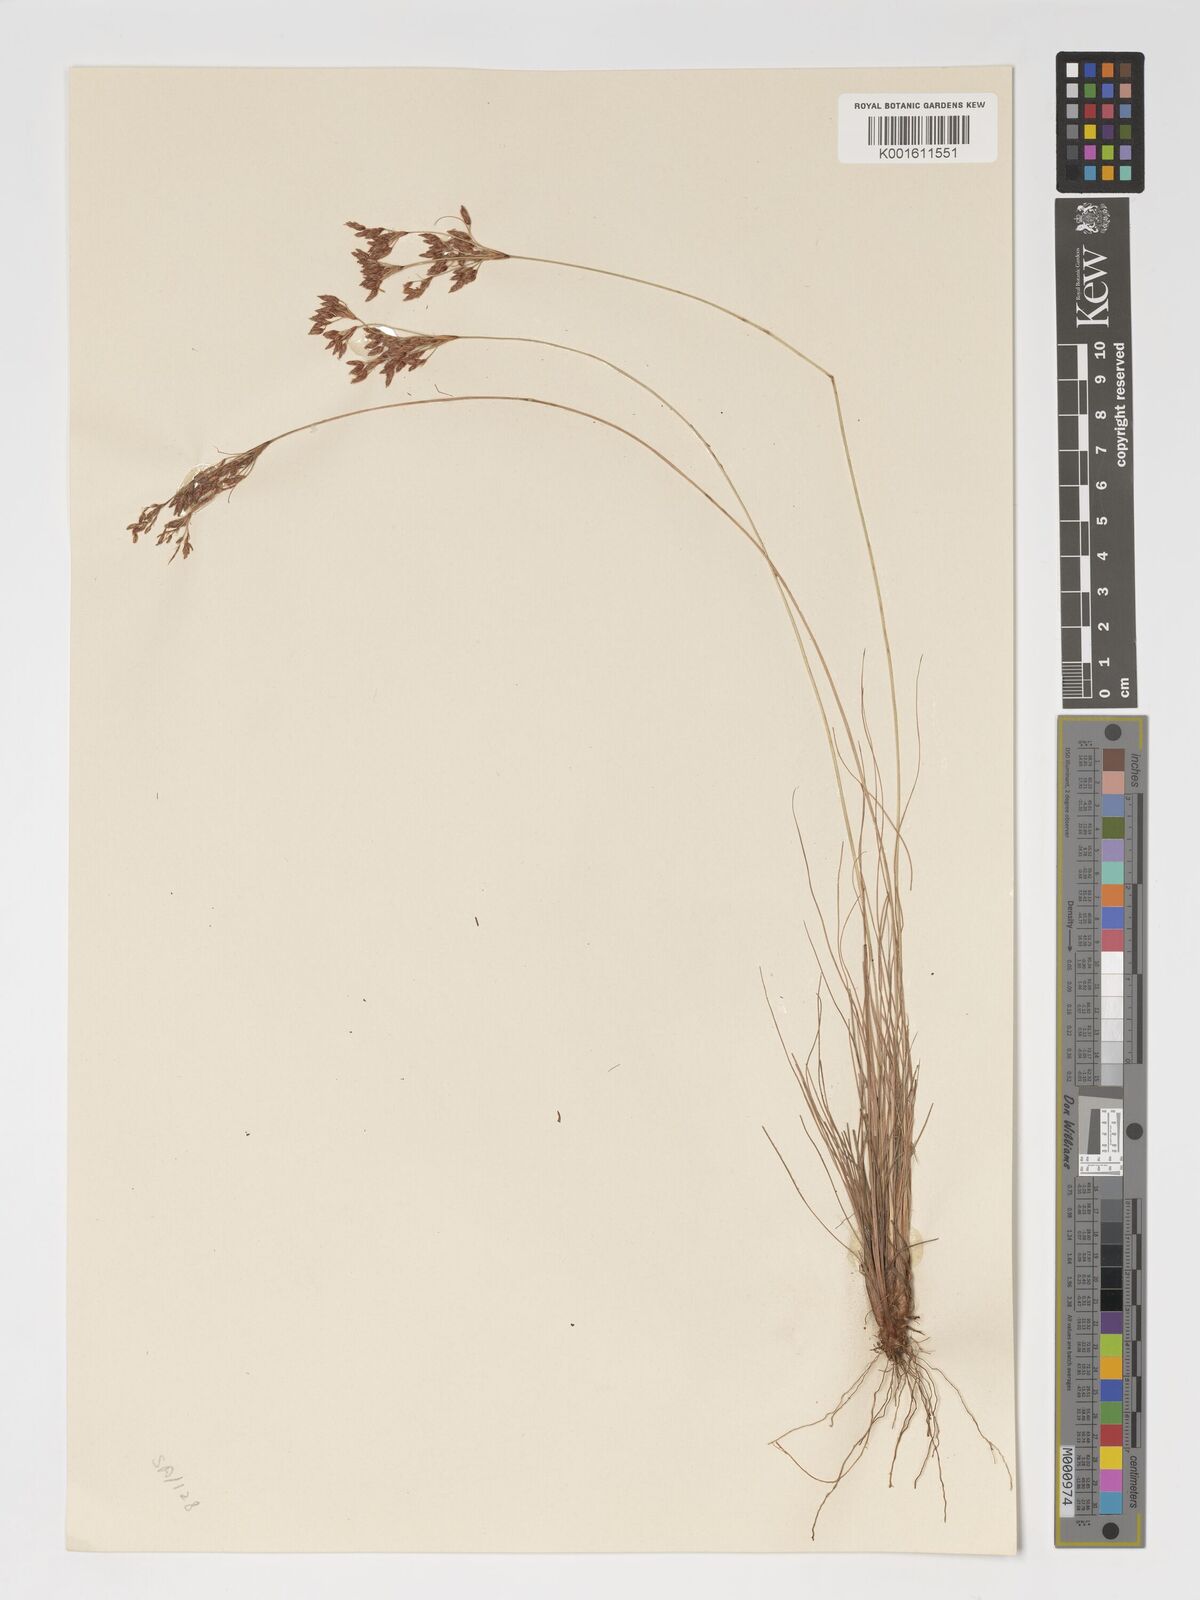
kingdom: Plantae
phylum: Tracheophyta
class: Liliopsida
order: Poales
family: Cyperaceae
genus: Bulbostylis
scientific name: Bulbostylis hispidula
